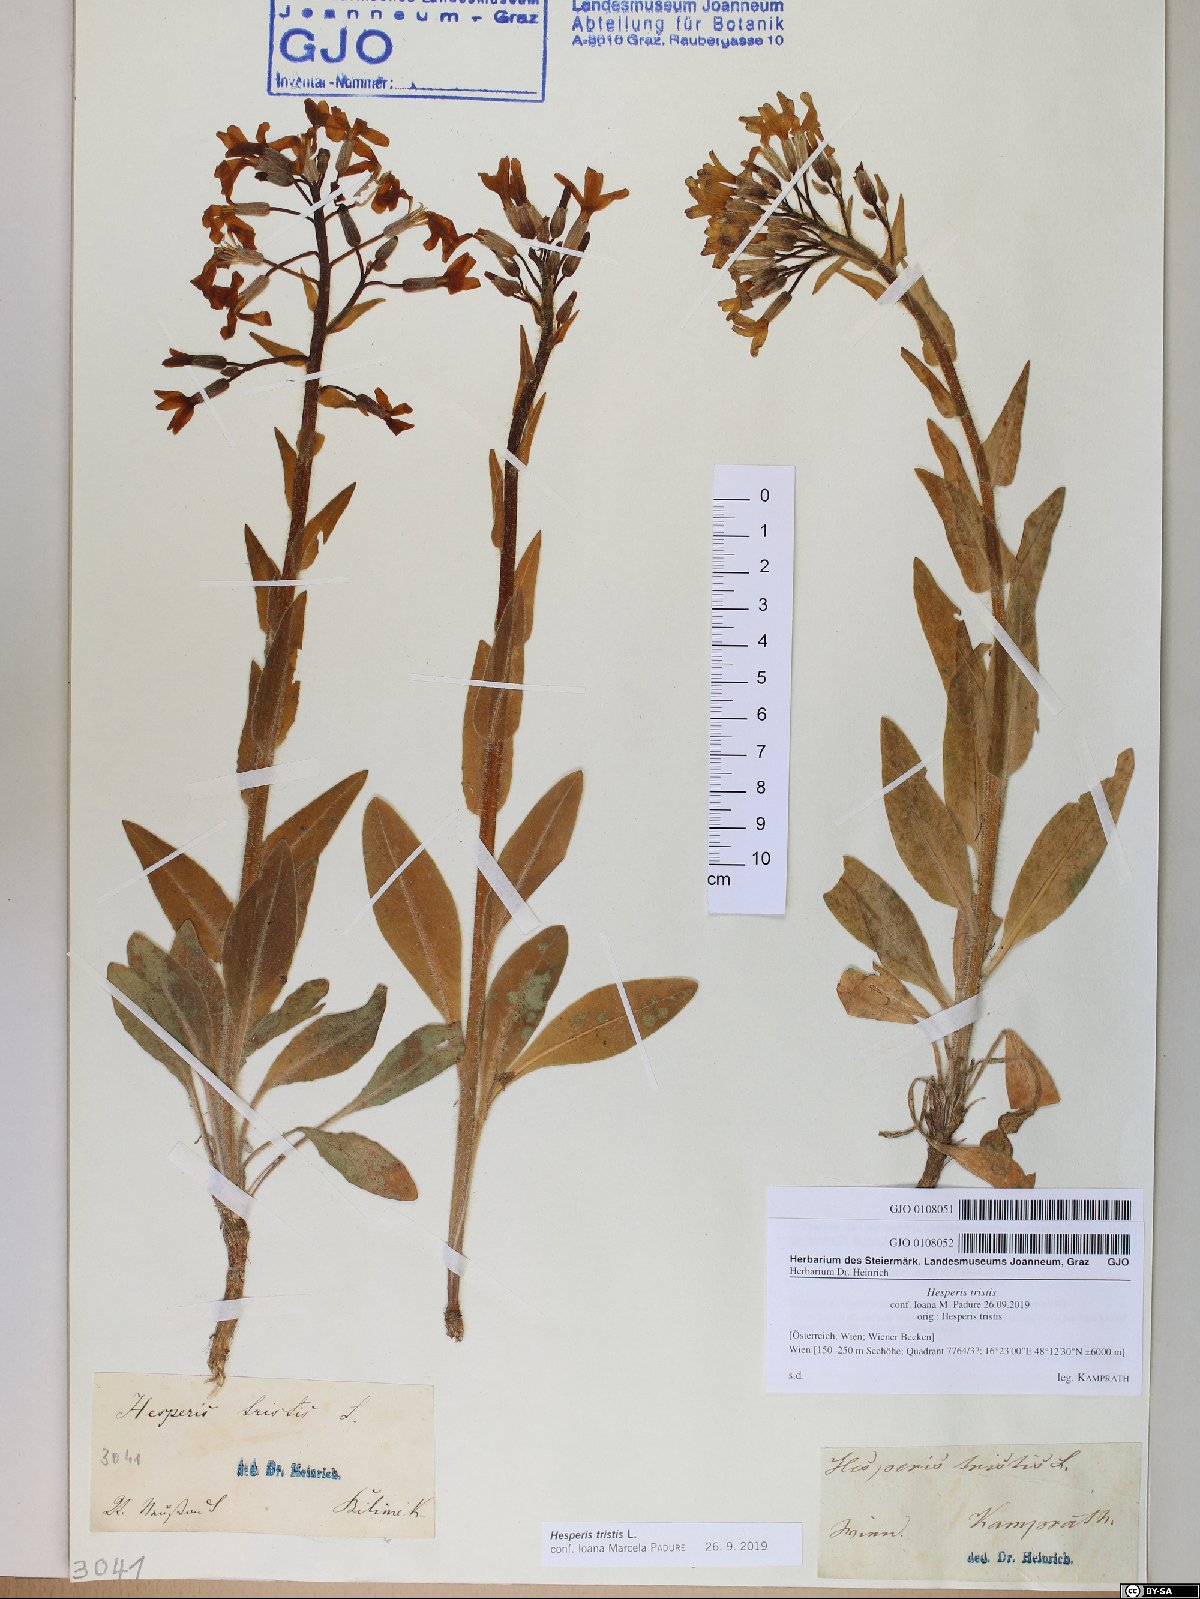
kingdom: Plantae
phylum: Tracheophyta
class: Magnoliopsida
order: Brassicales
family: Brassicaceae
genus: Hesperis
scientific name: Hesperis tristis
